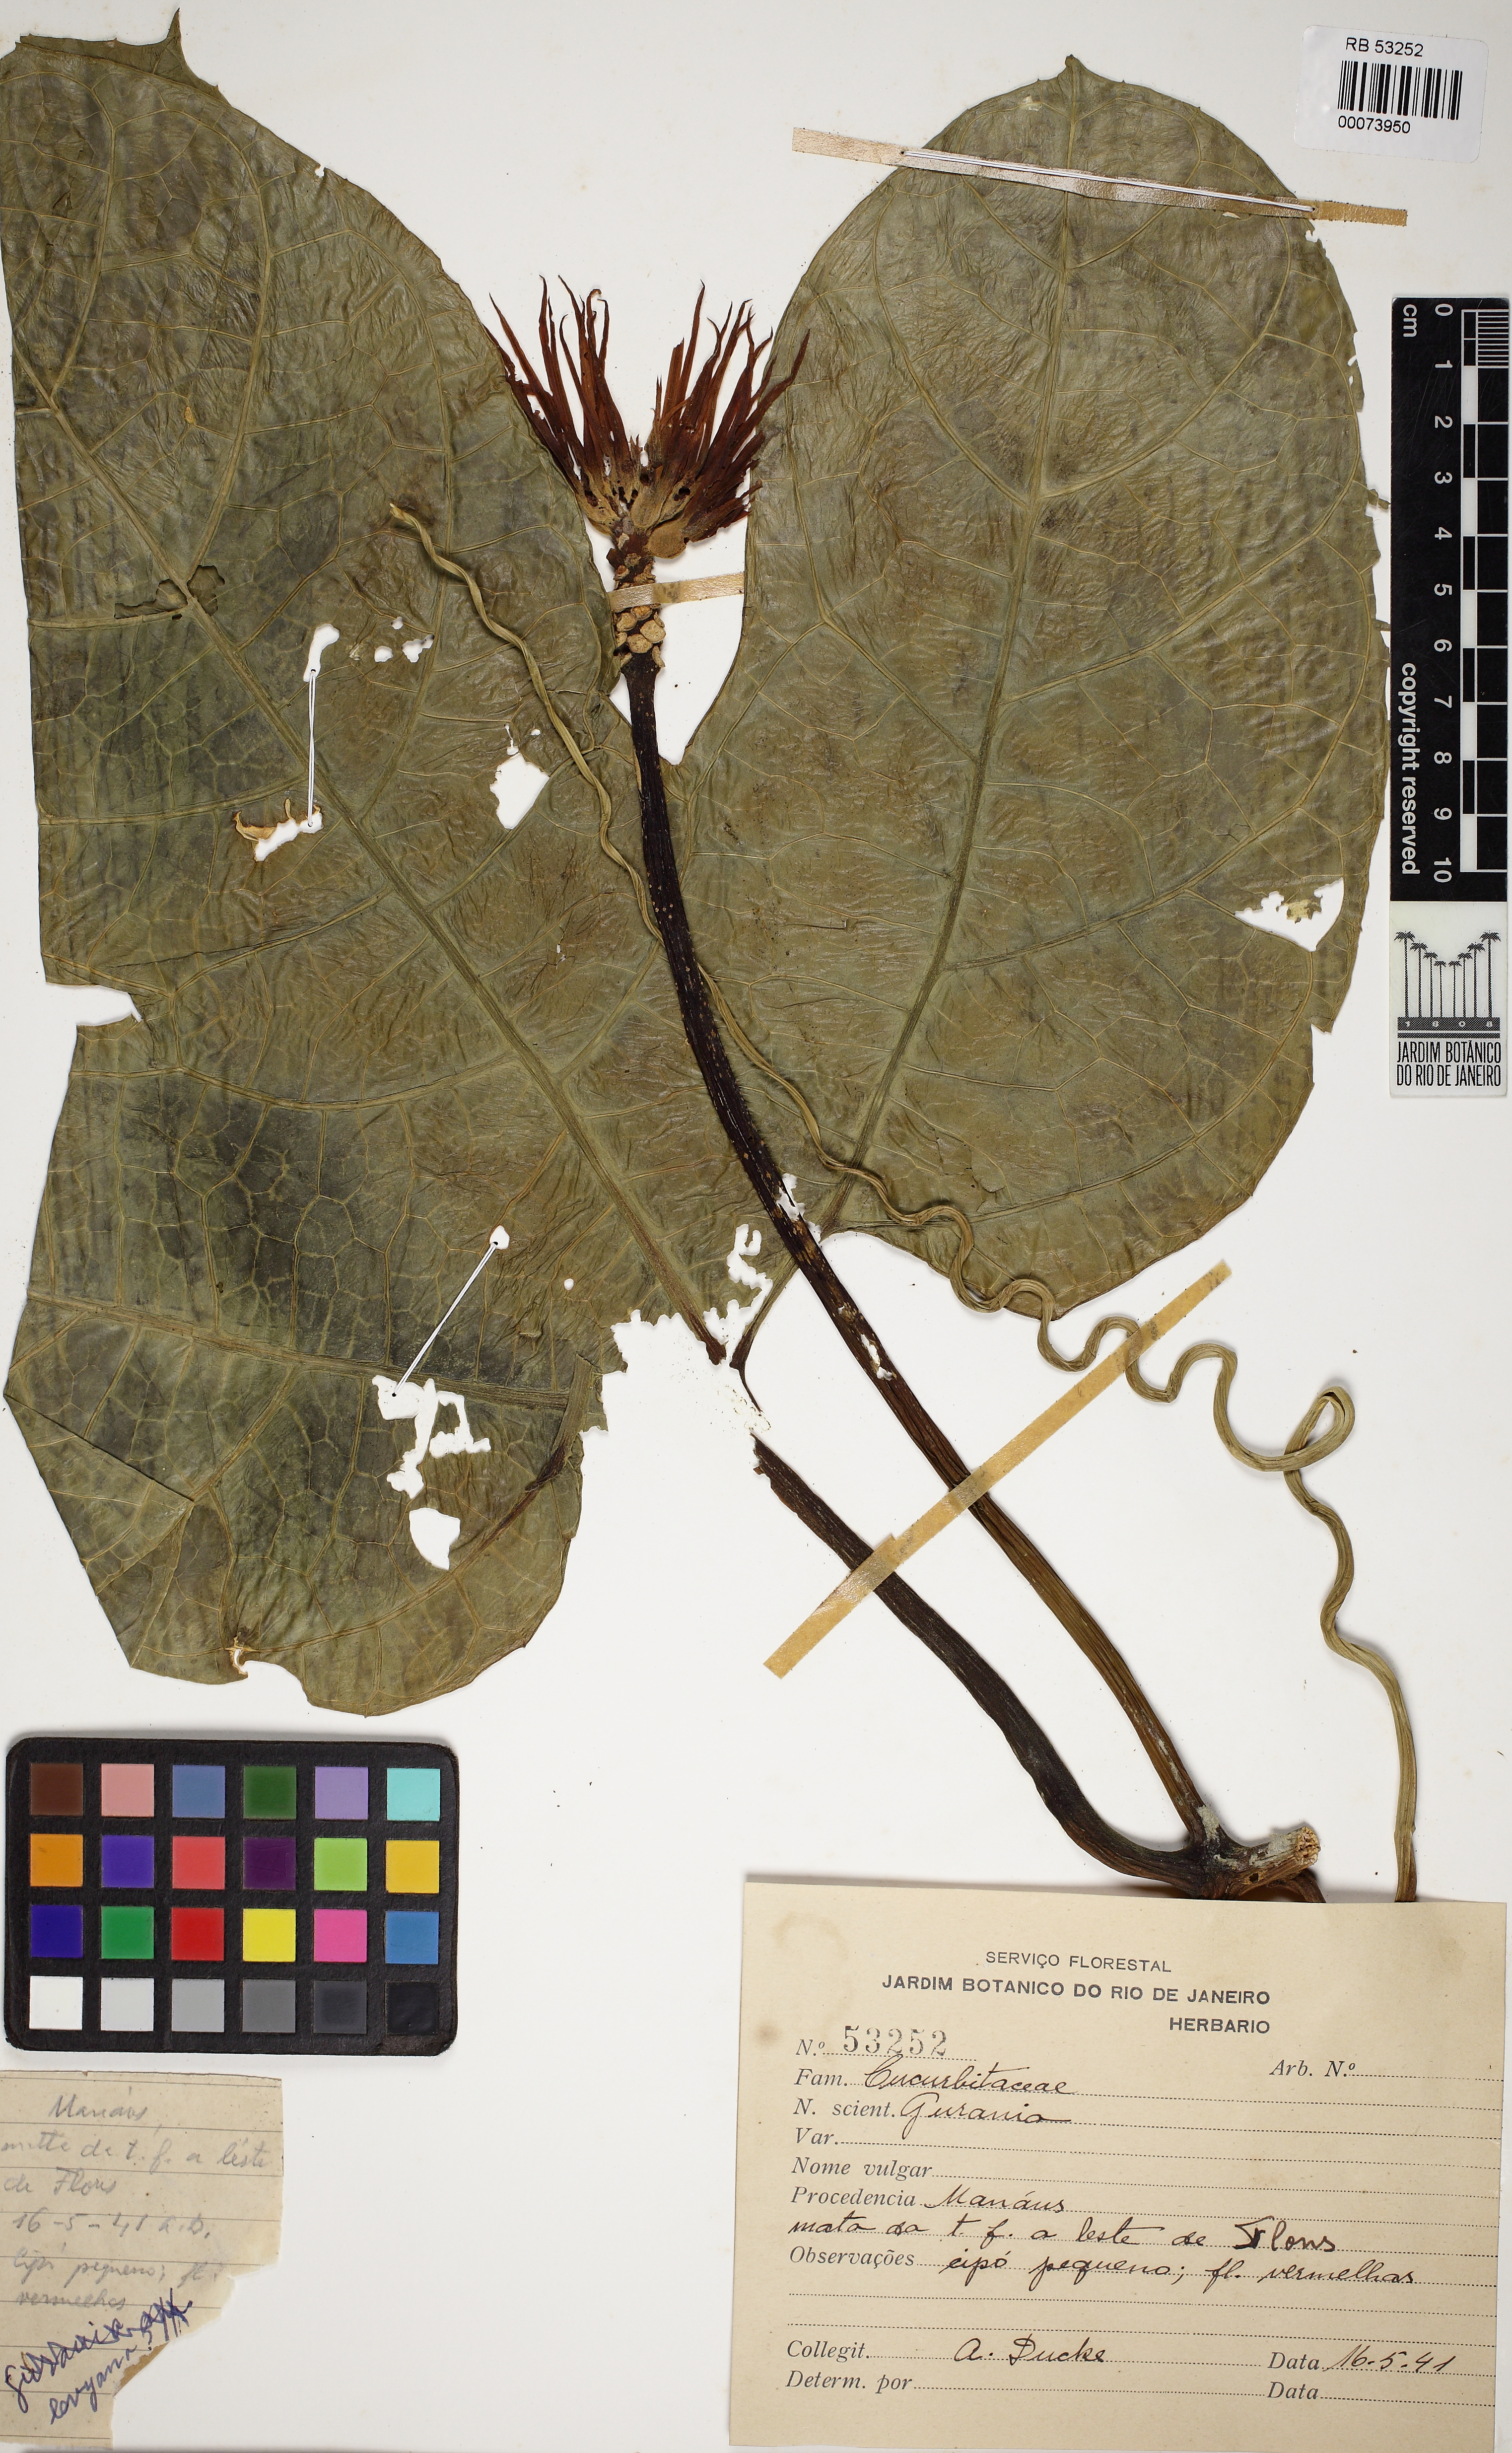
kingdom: Plantae
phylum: Tracheophyta
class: Magnoliopsida
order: Cucurbitales
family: Cucurbitaceae
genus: Gurania
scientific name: Gurania huebneri
